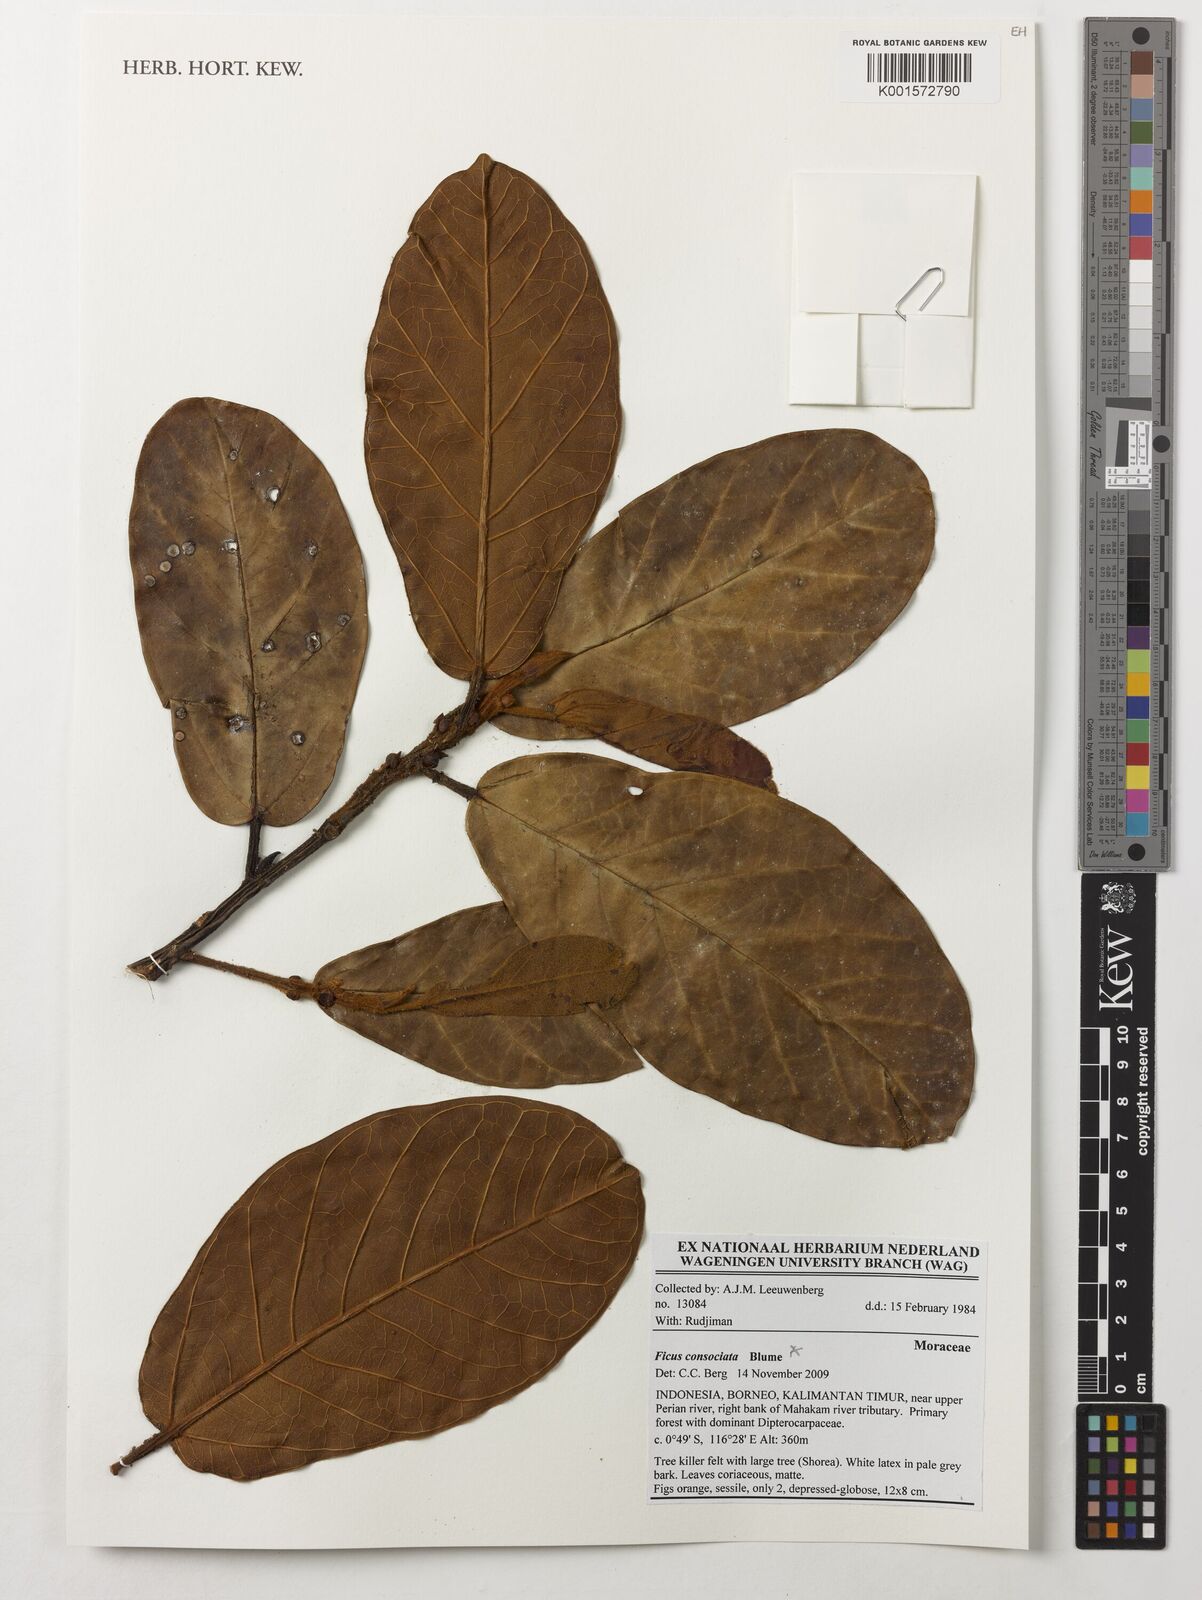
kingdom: Plantae
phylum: Tracheophyta
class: Magnoliopsida
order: Rosales
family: Moraceae
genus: Ficus
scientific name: Ficus consociata
